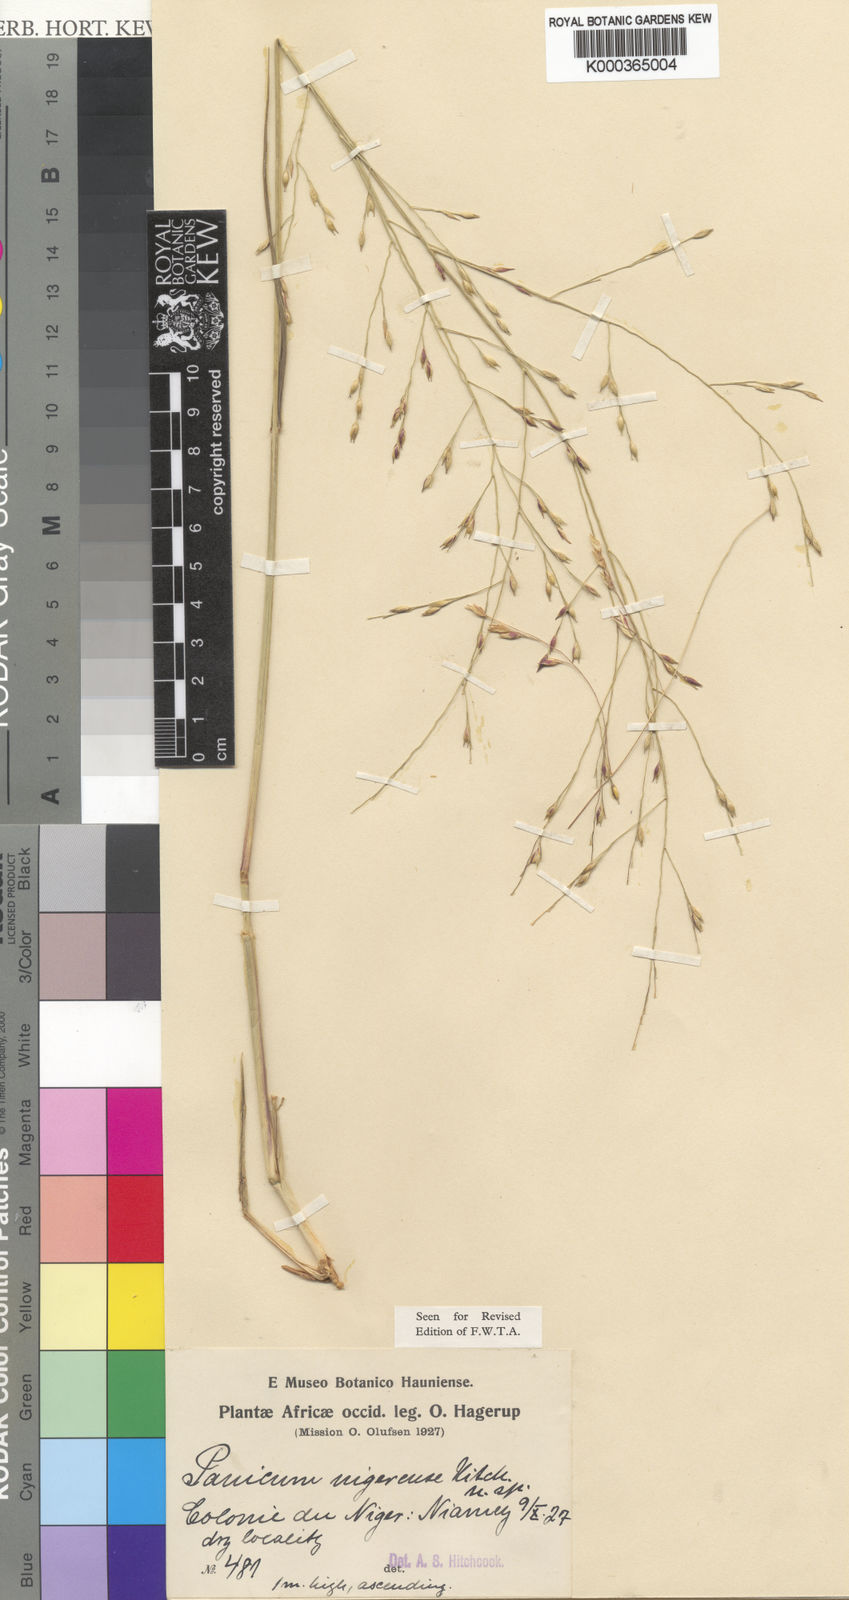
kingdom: Plantae
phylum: Tracheophyta
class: Liliopsida
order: Poales
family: Poaceae
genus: Panicum
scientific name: Panicum nigerense
